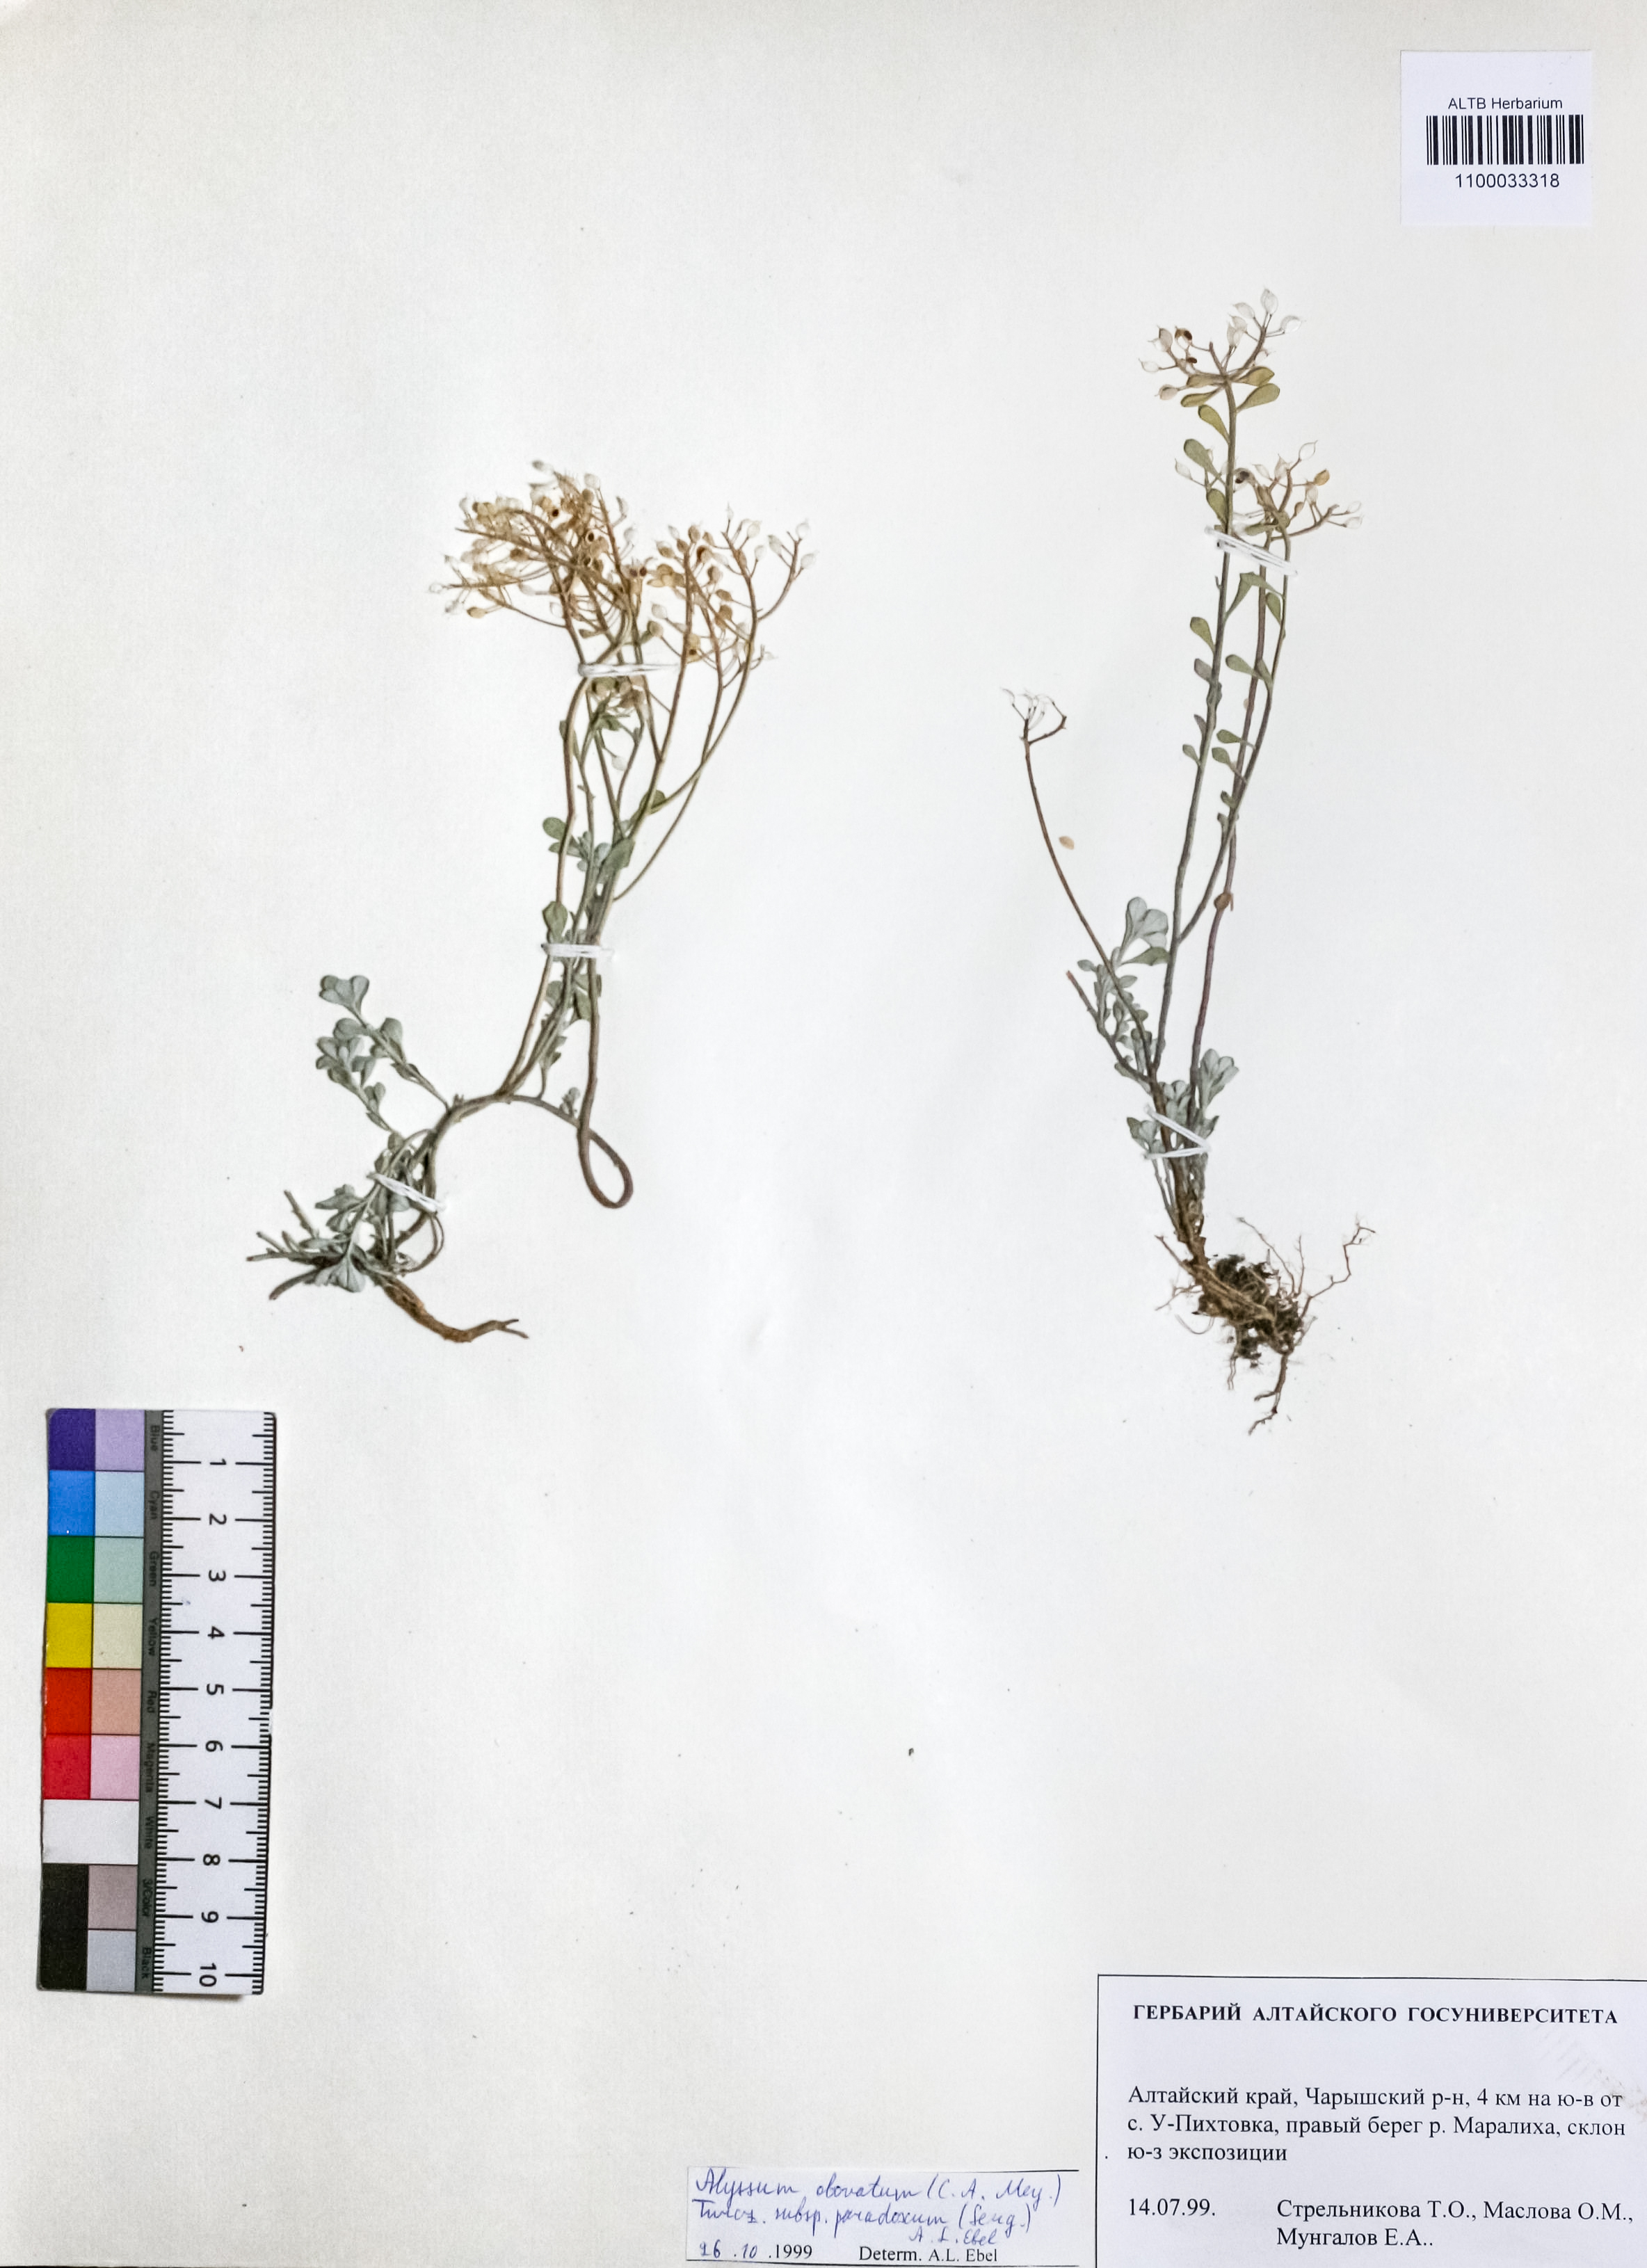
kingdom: Plantae
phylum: Tracheophyta
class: Magnoliopsida
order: Brassicales
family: Brassicaceae
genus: Odontarrhena
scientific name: Odontarrhena obovata
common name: American alyssum
